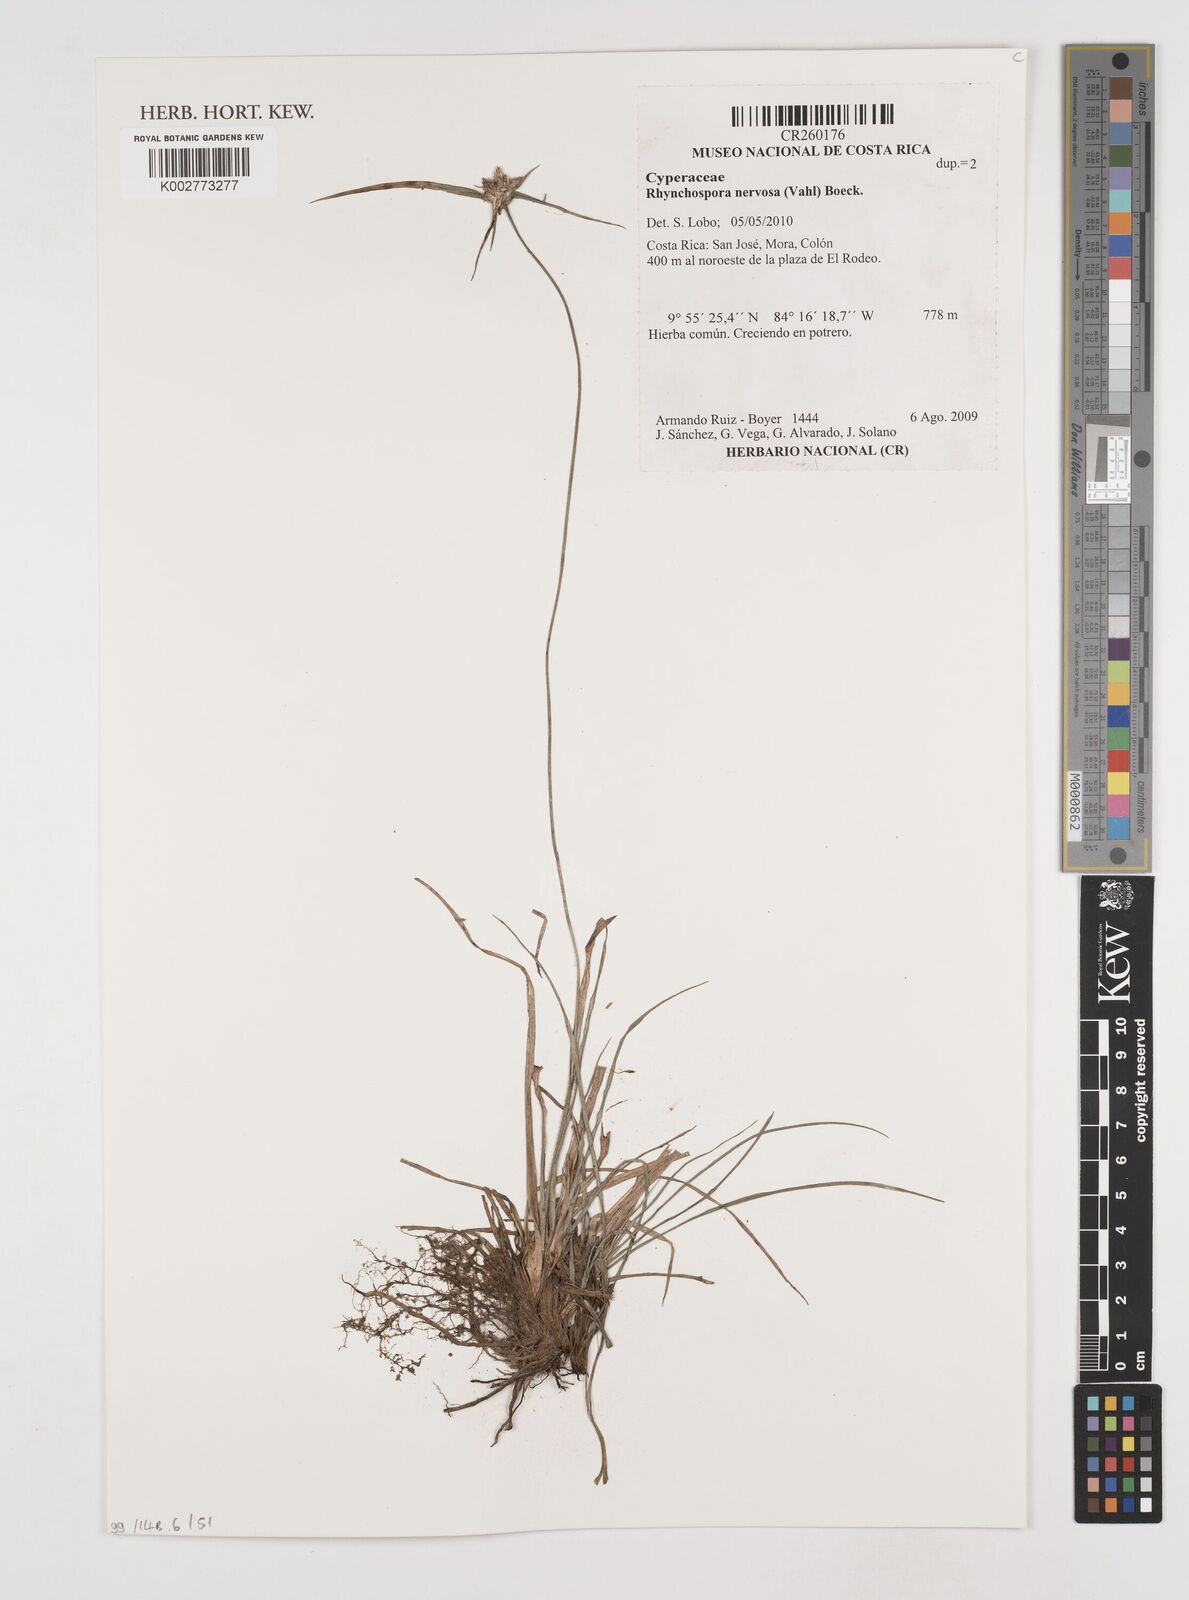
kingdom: Plantae
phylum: Tracheophyta
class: Liliopsida
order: Poales
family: Cyperaceae
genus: Rhynchospora
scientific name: Rhynchospora nervosa
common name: Star sedge
